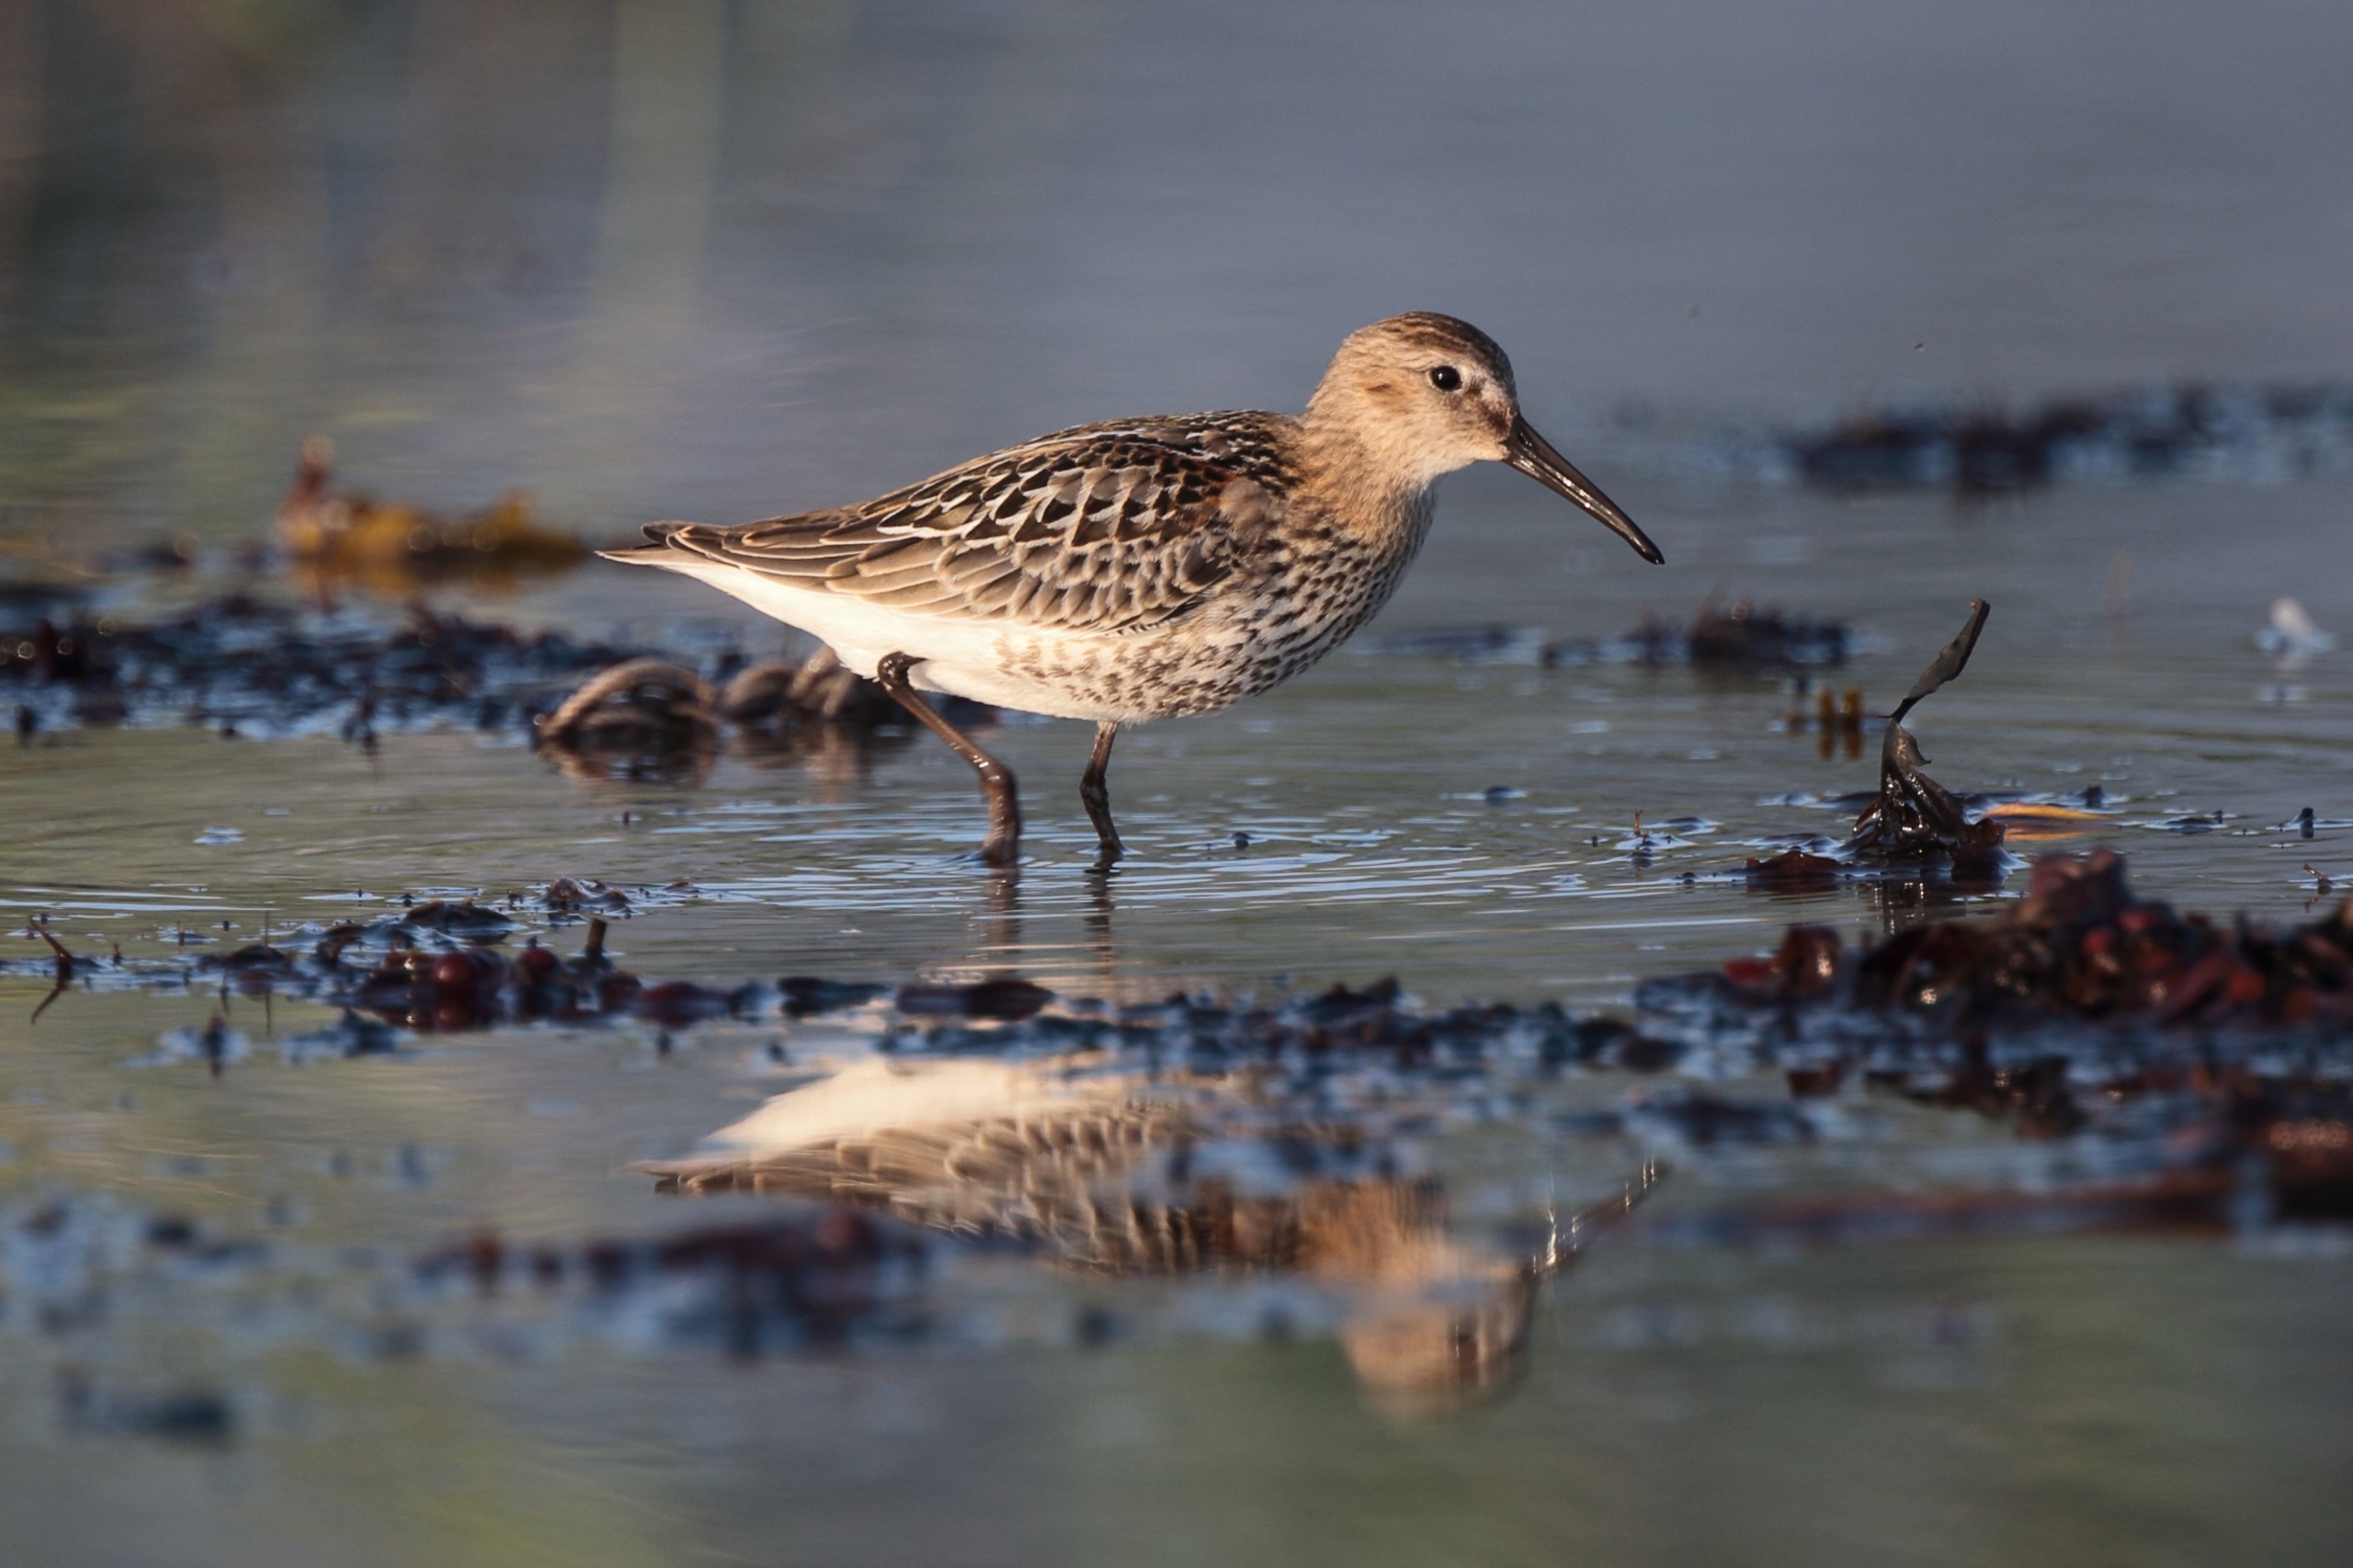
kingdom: Animalia
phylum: Chordata
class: Aves
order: Charadriiformes
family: Scolopacidae
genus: Calidris
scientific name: Calidris alpina
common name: Almindelig ryle
